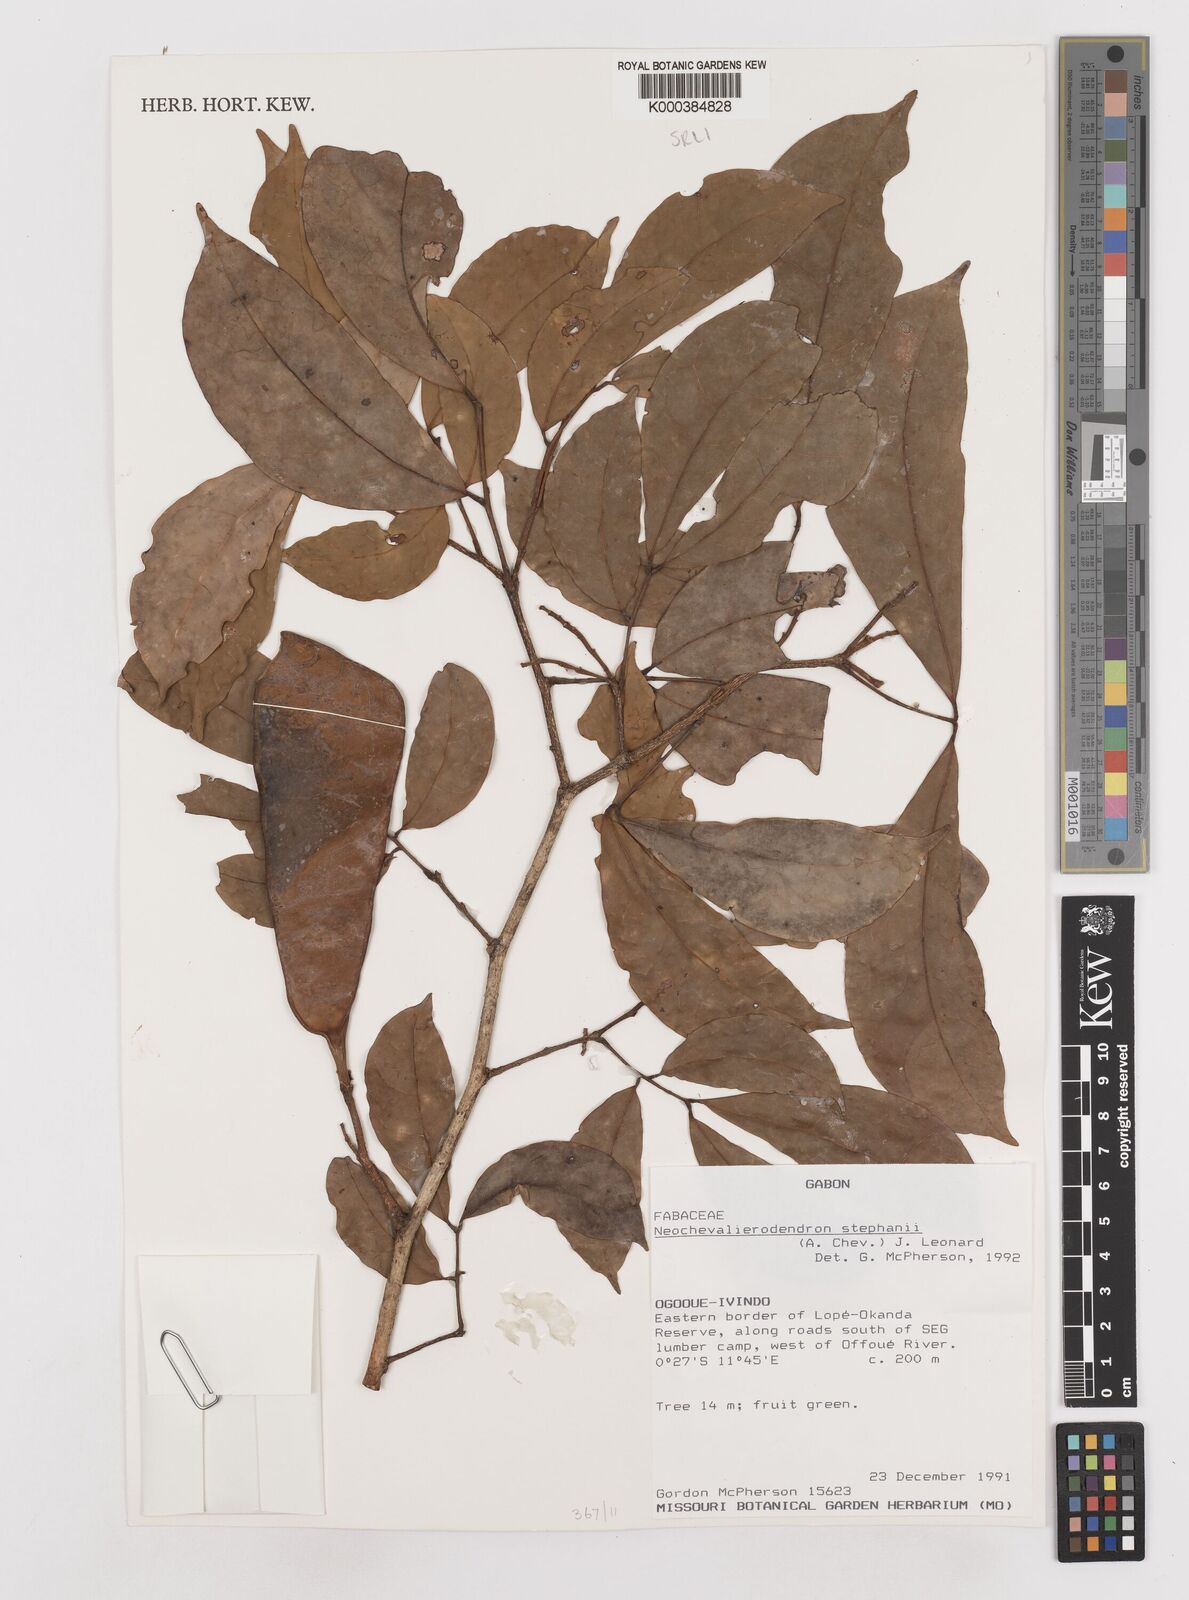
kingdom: Plantae
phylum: Tracheophyta
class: Magnoliopsida
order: Fabales
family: Fabaceae
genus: Neochevalierodendron
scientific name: Neochevalierodendron stephanii
